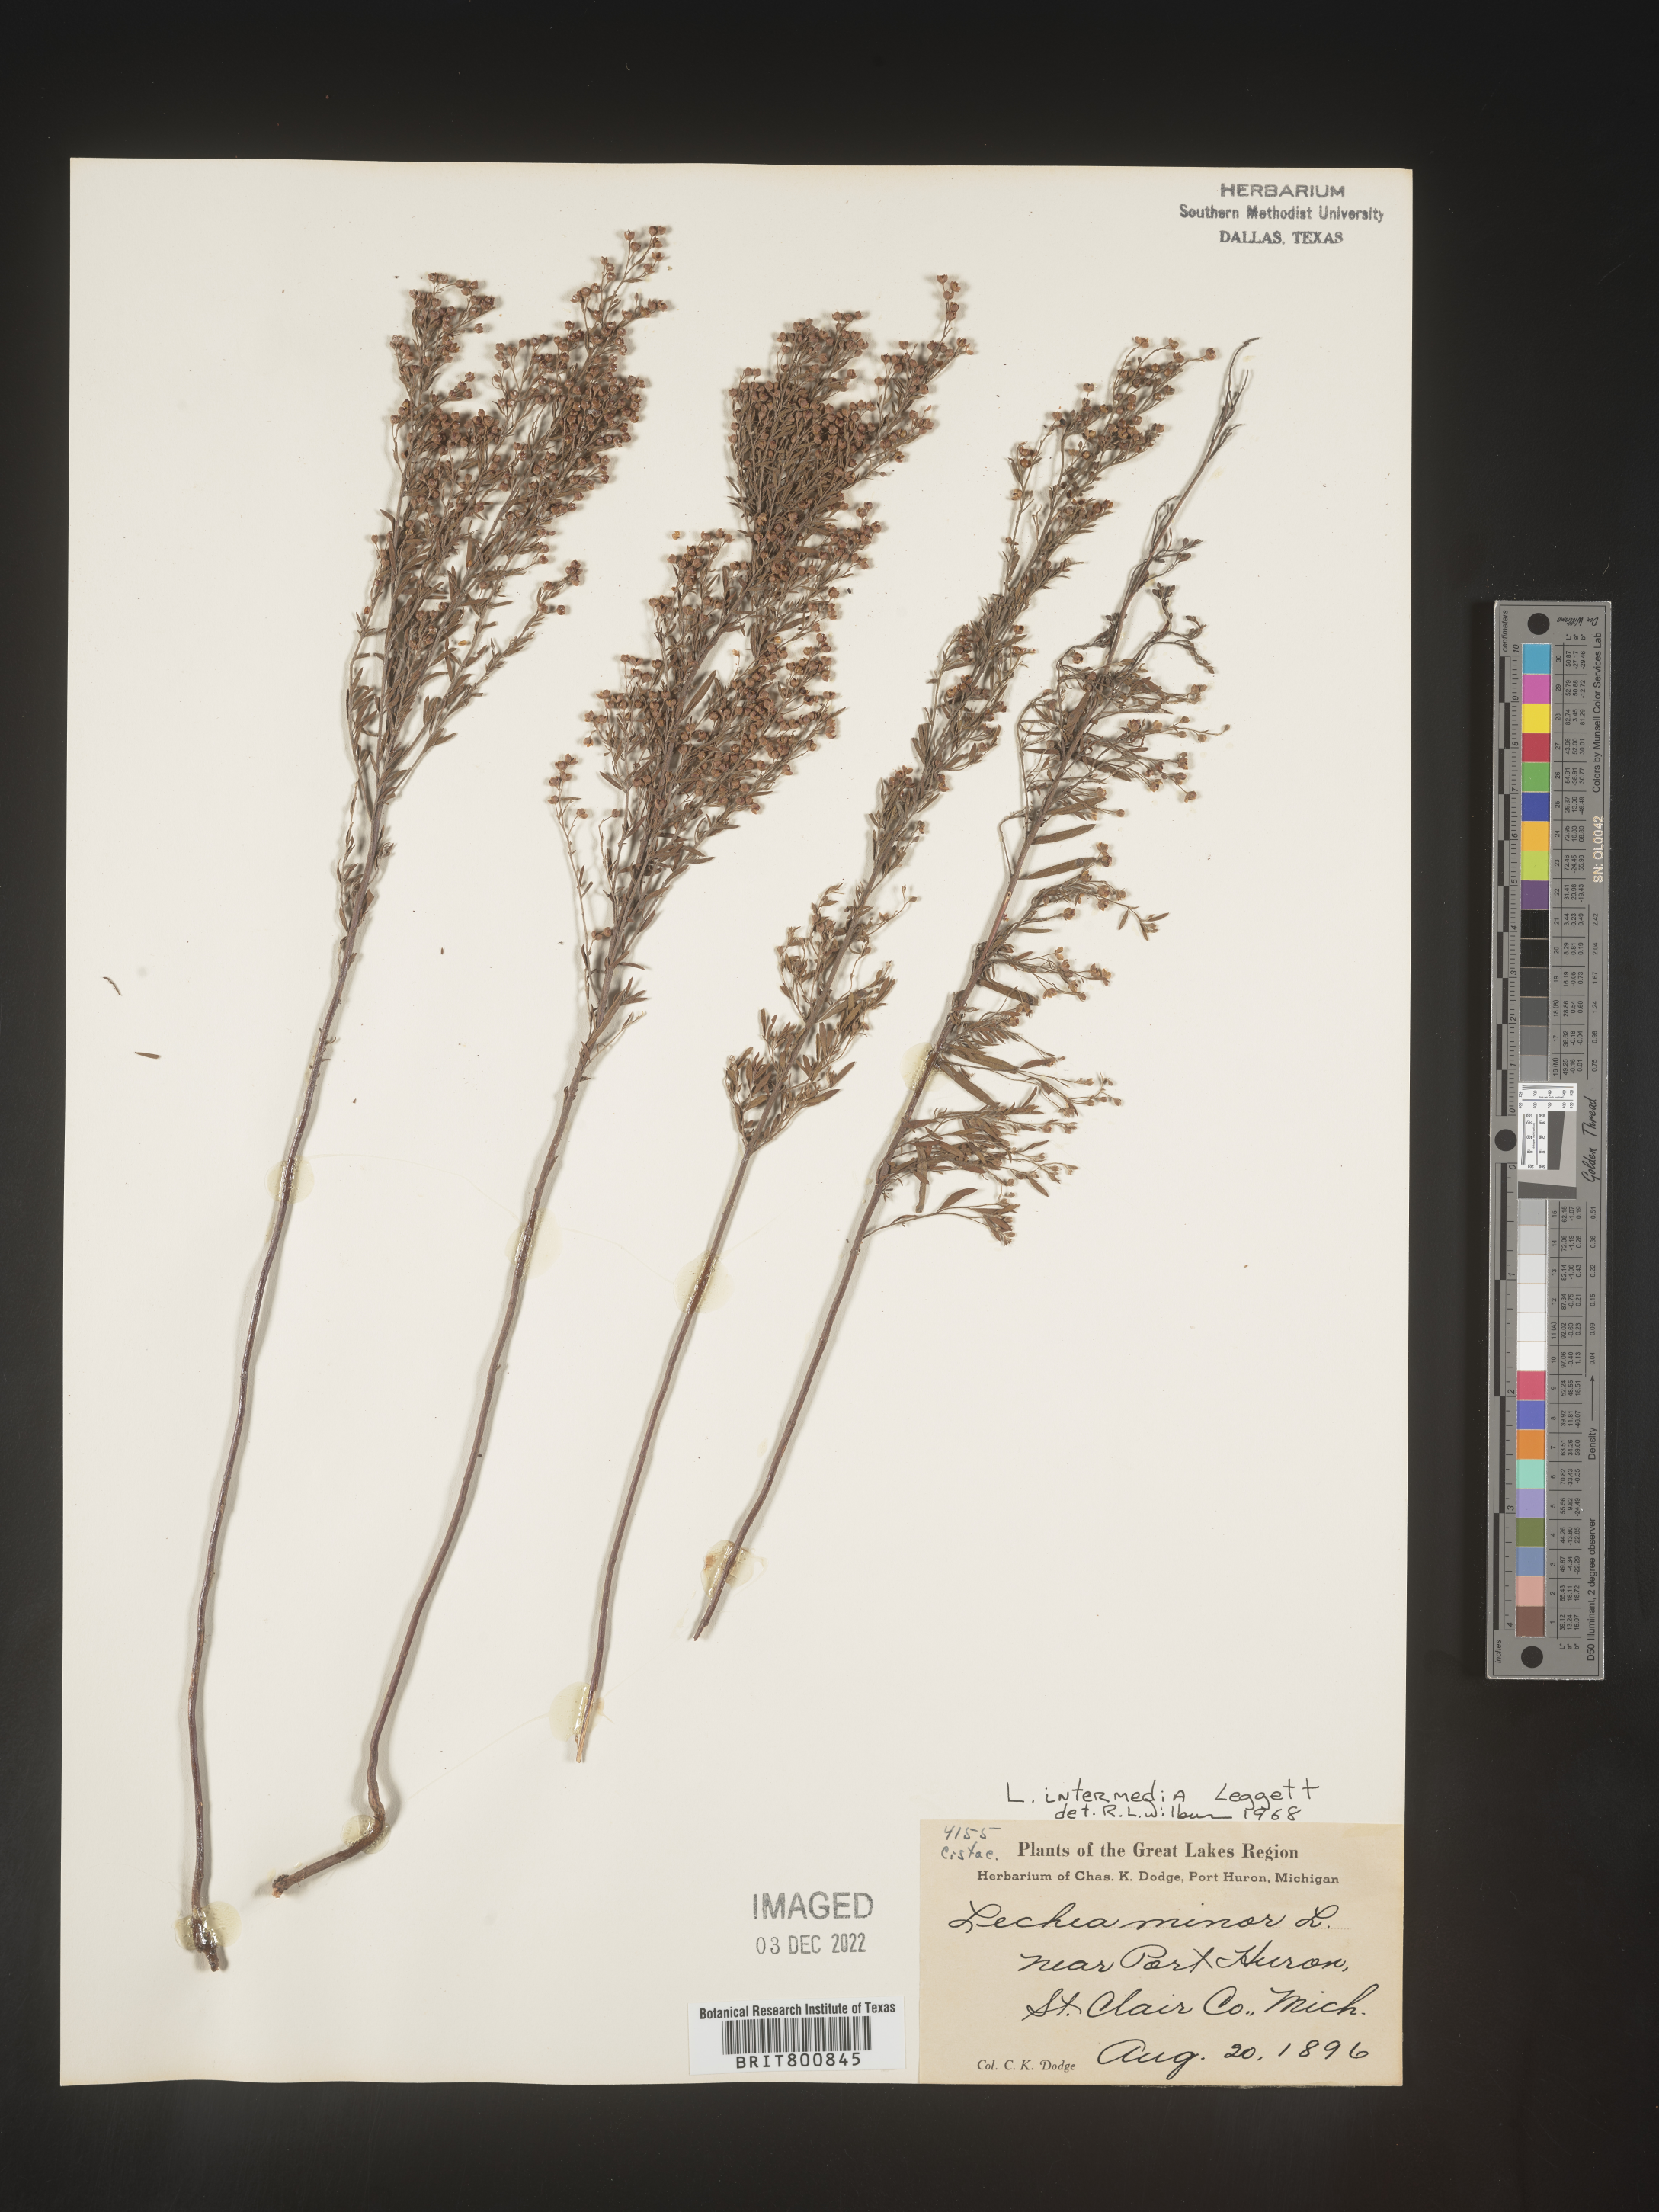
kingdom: Plantae
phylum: Tracheophyta
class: Magnoliopsida
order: Malvales
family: Cistaceae
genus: Lechea
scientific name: Lechea intermedia
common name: Intermediate pinweed
